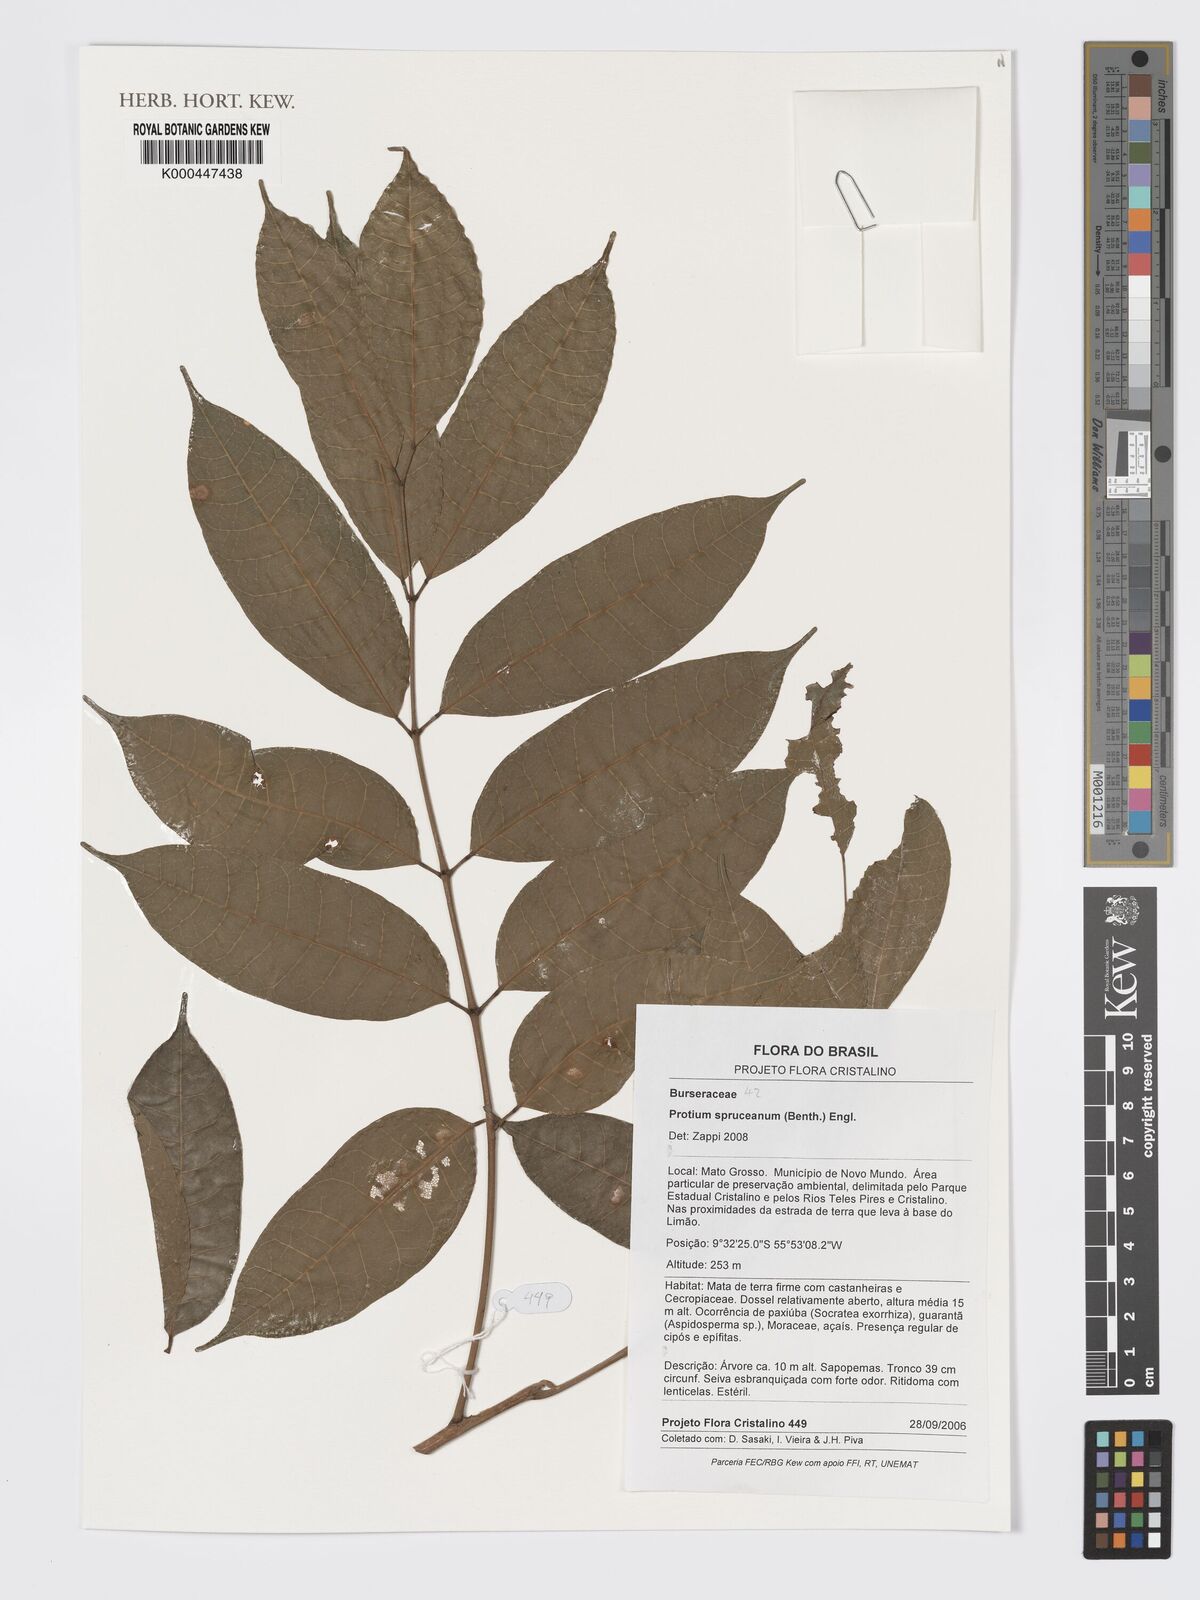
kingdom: Plantae
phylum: Tracheophyta
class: Magnoliopsida
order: Sapindales
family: Burseraceae
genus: Protium
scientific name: Protium spruceanum
